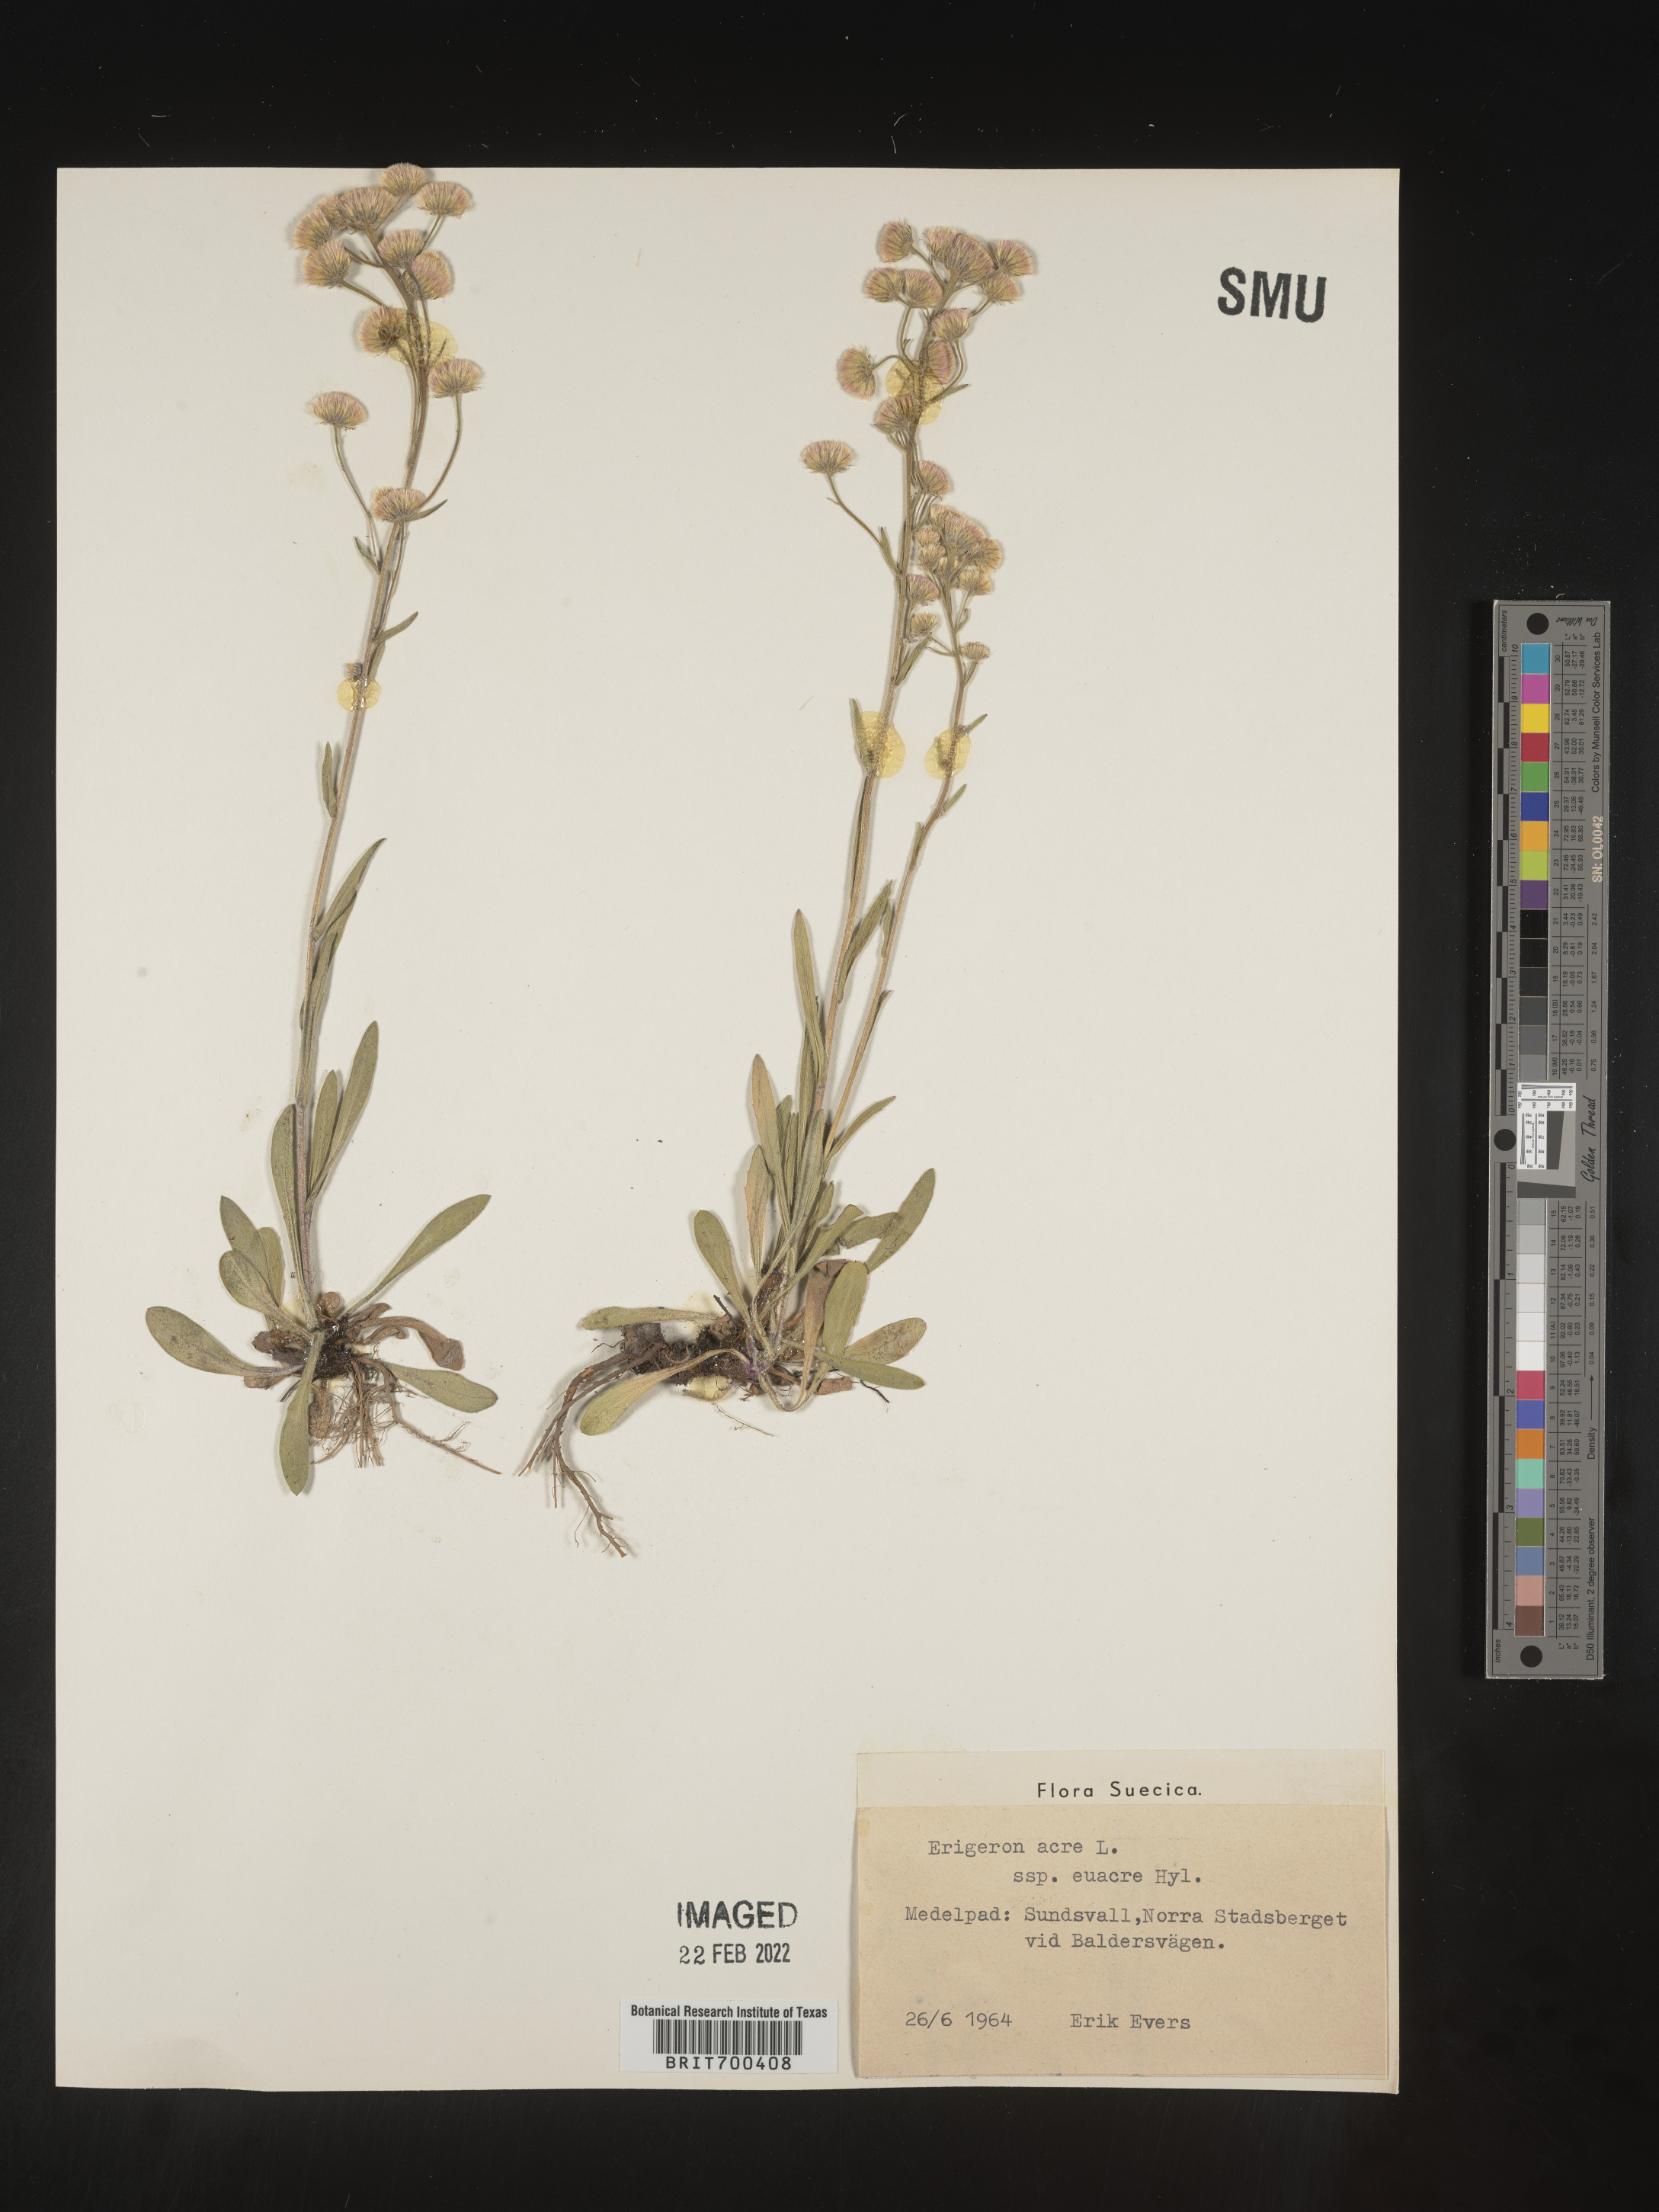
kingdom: Plantae
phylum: Tracheophyta
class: Magnoliopsida
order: Asterales
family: Asteraceae
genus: Erigeron
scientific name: Erigeron
